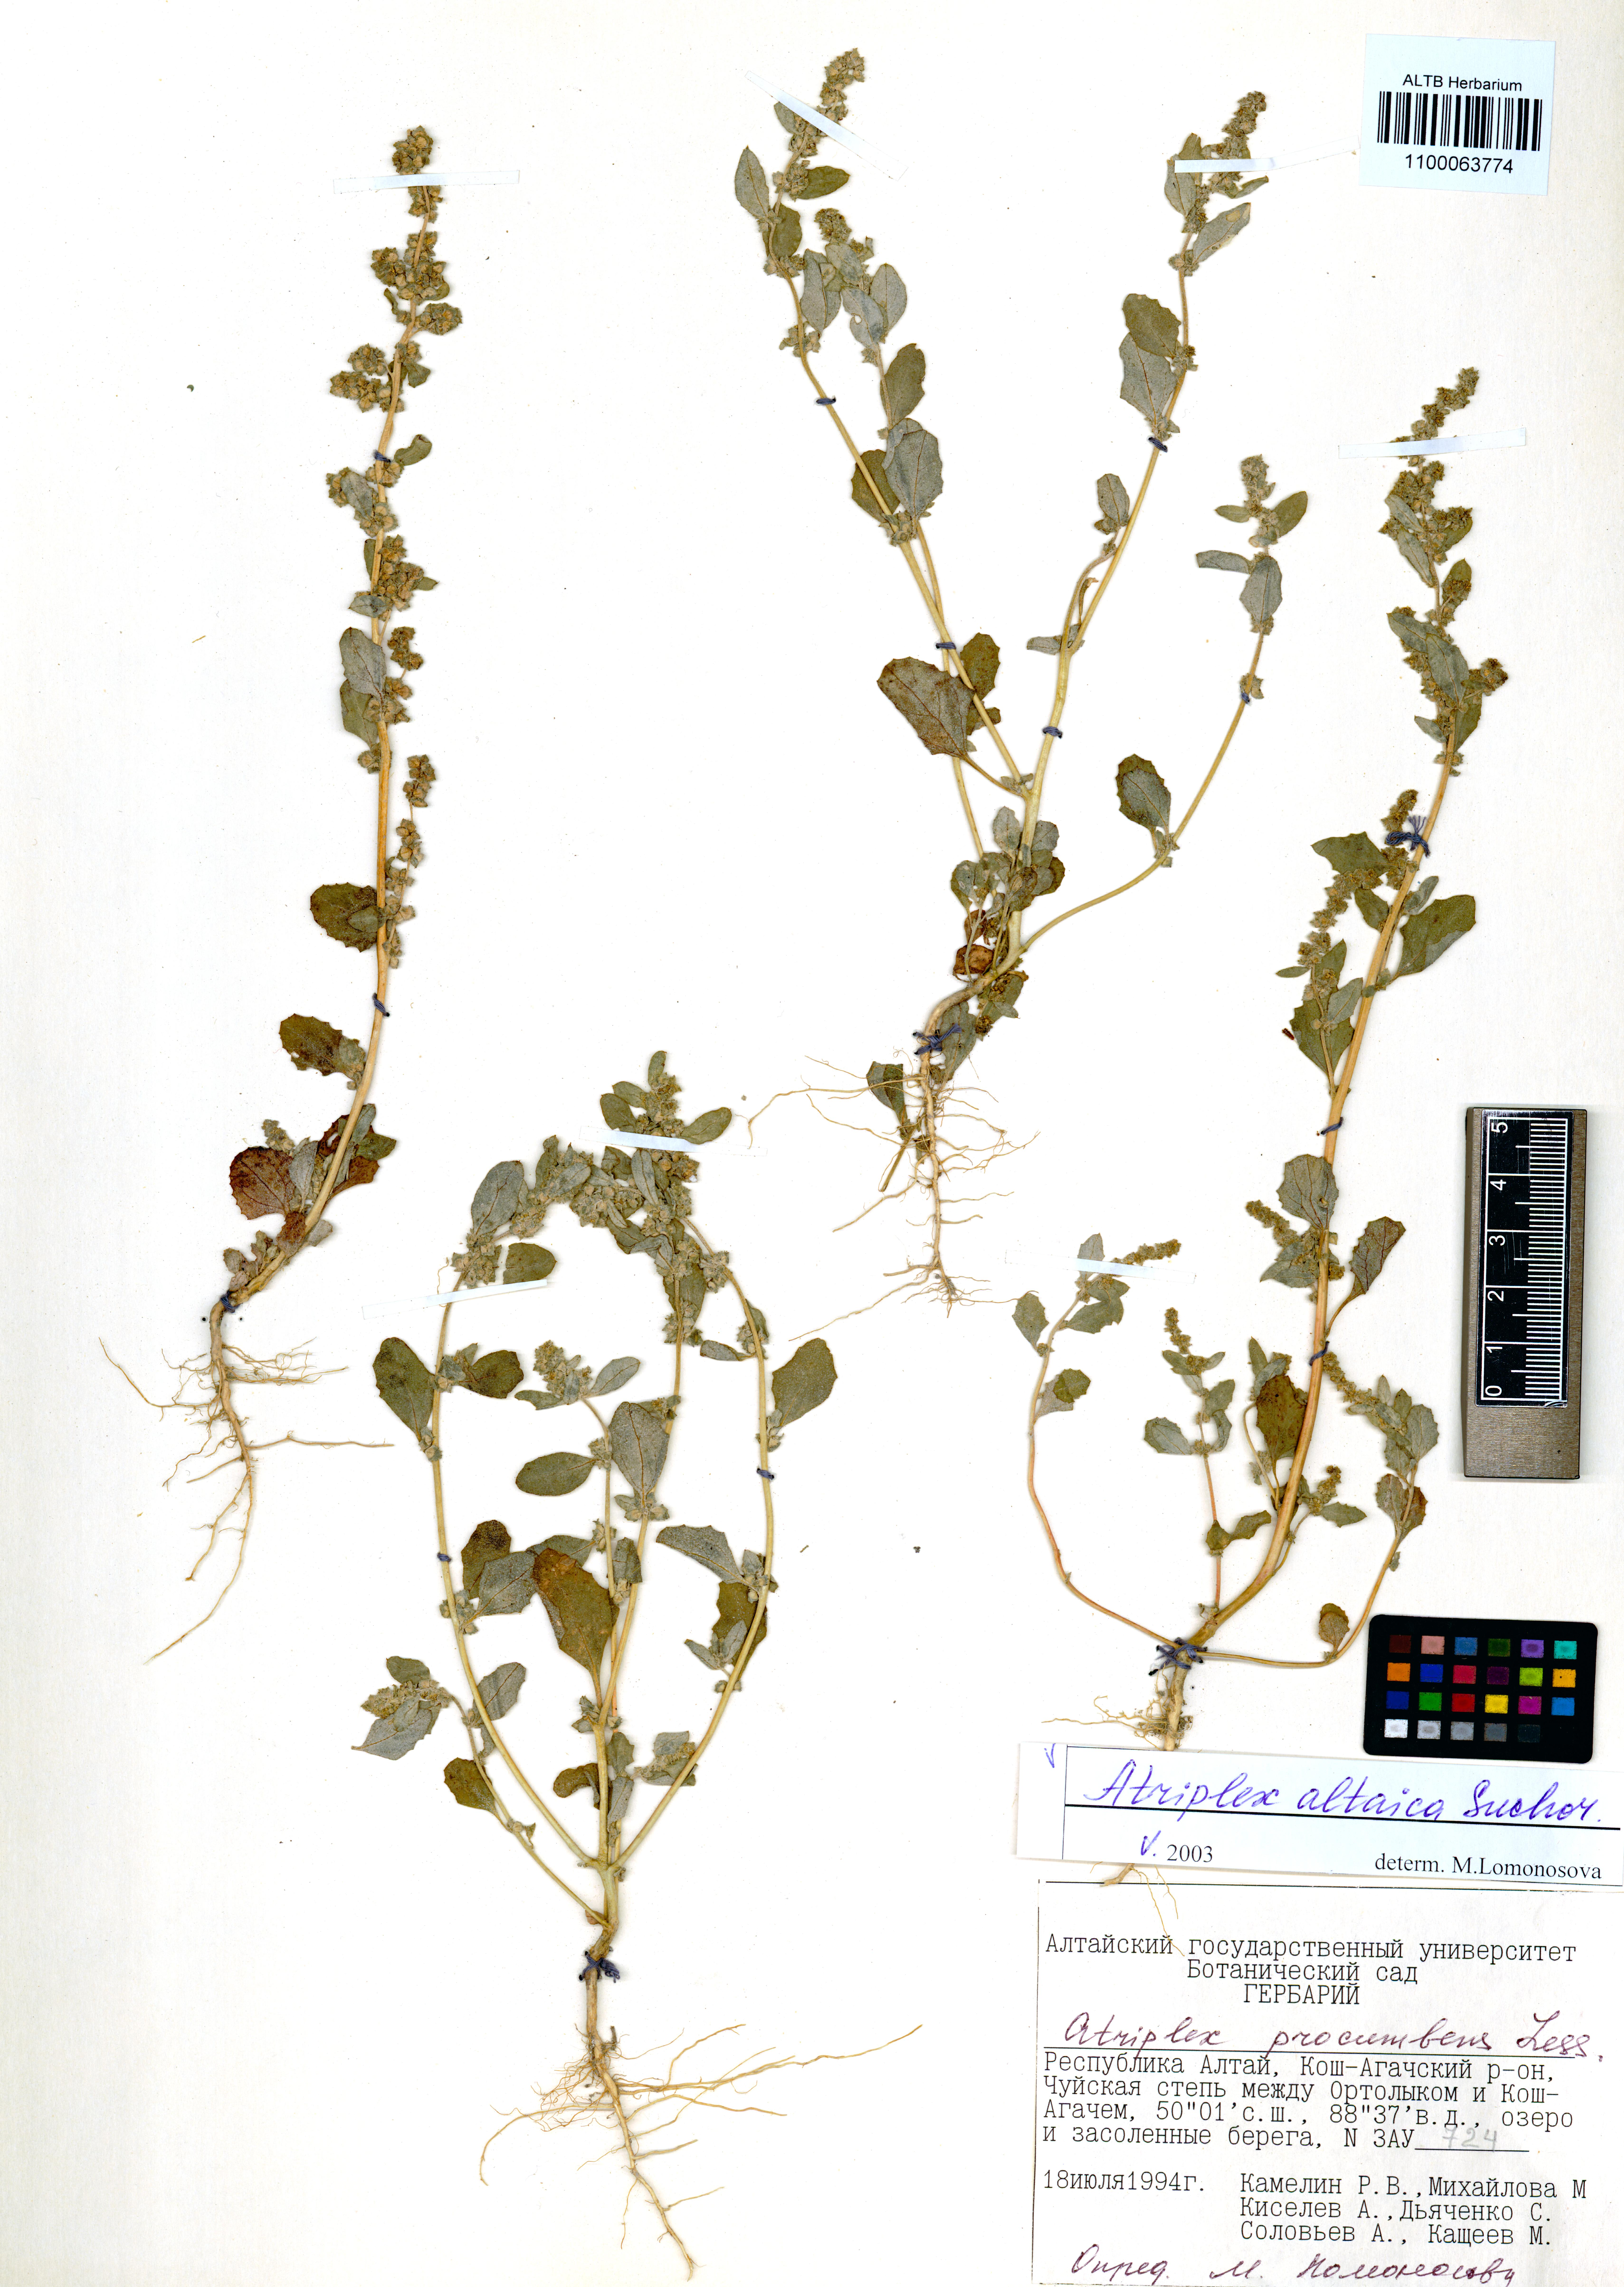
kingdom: Plantae
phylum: Tracheophyta
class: Magnoliopsida
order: Caryophyllales
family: Amaranthaceae
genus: Atriplex
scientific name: Atriplex altaica
